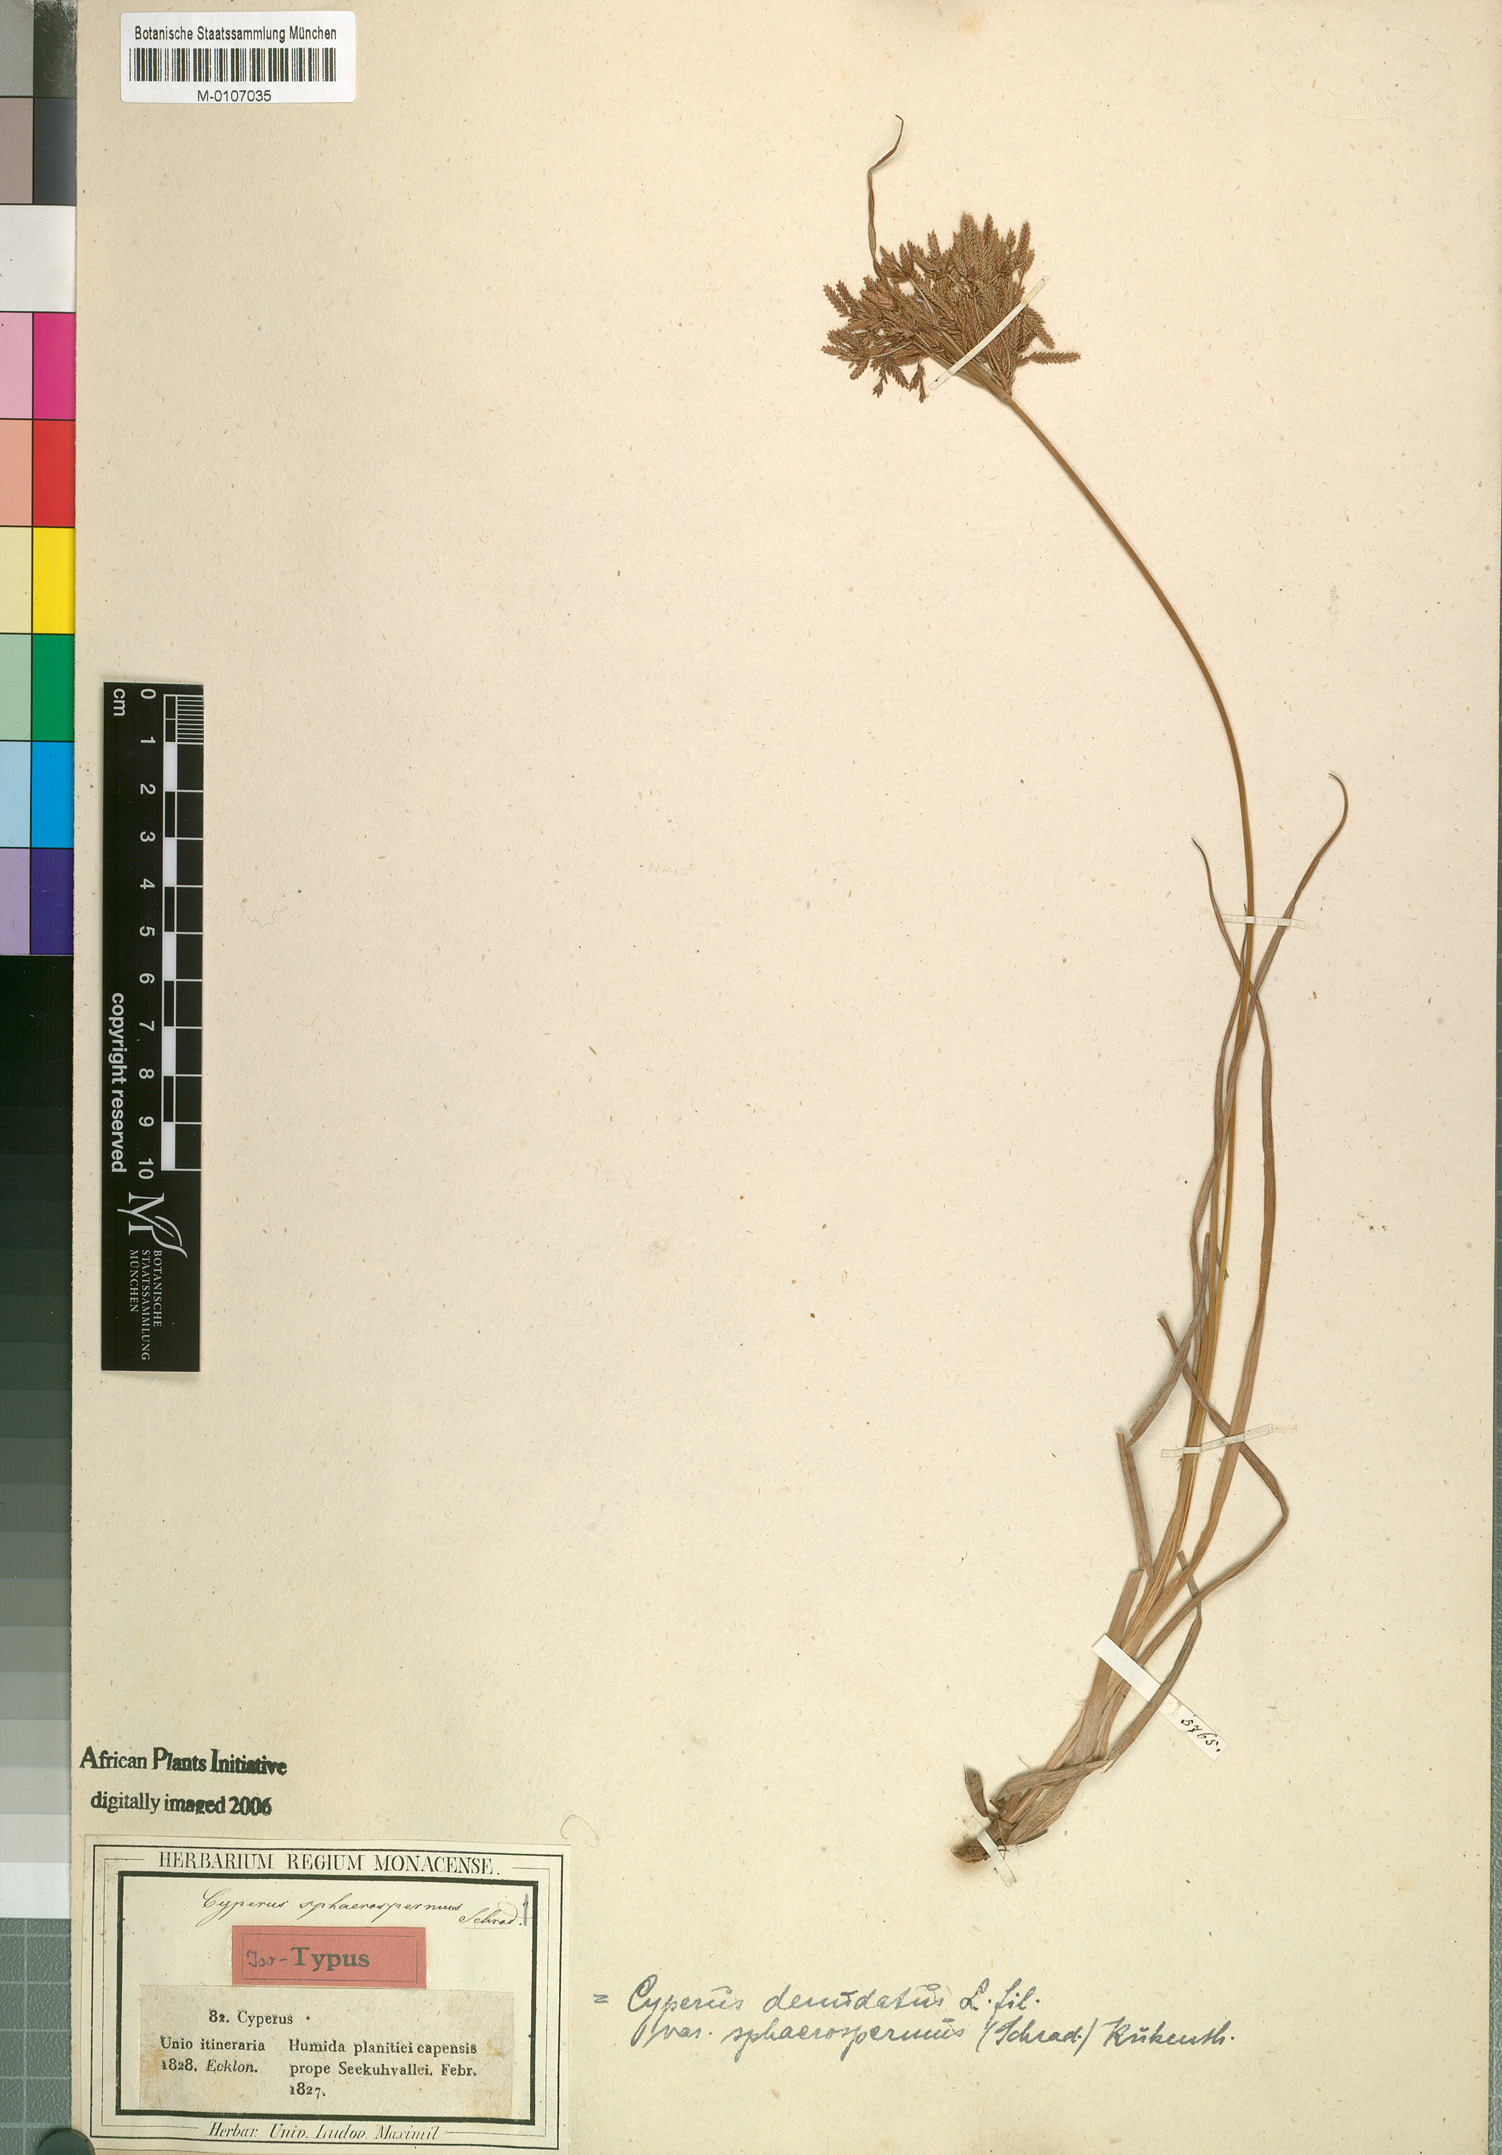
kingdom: Plantae
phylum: Tracheophyta
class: Liliopsida
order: Poales
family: Cyperaceae
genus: Cyperus
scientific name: Cyperus sphaerospermus
